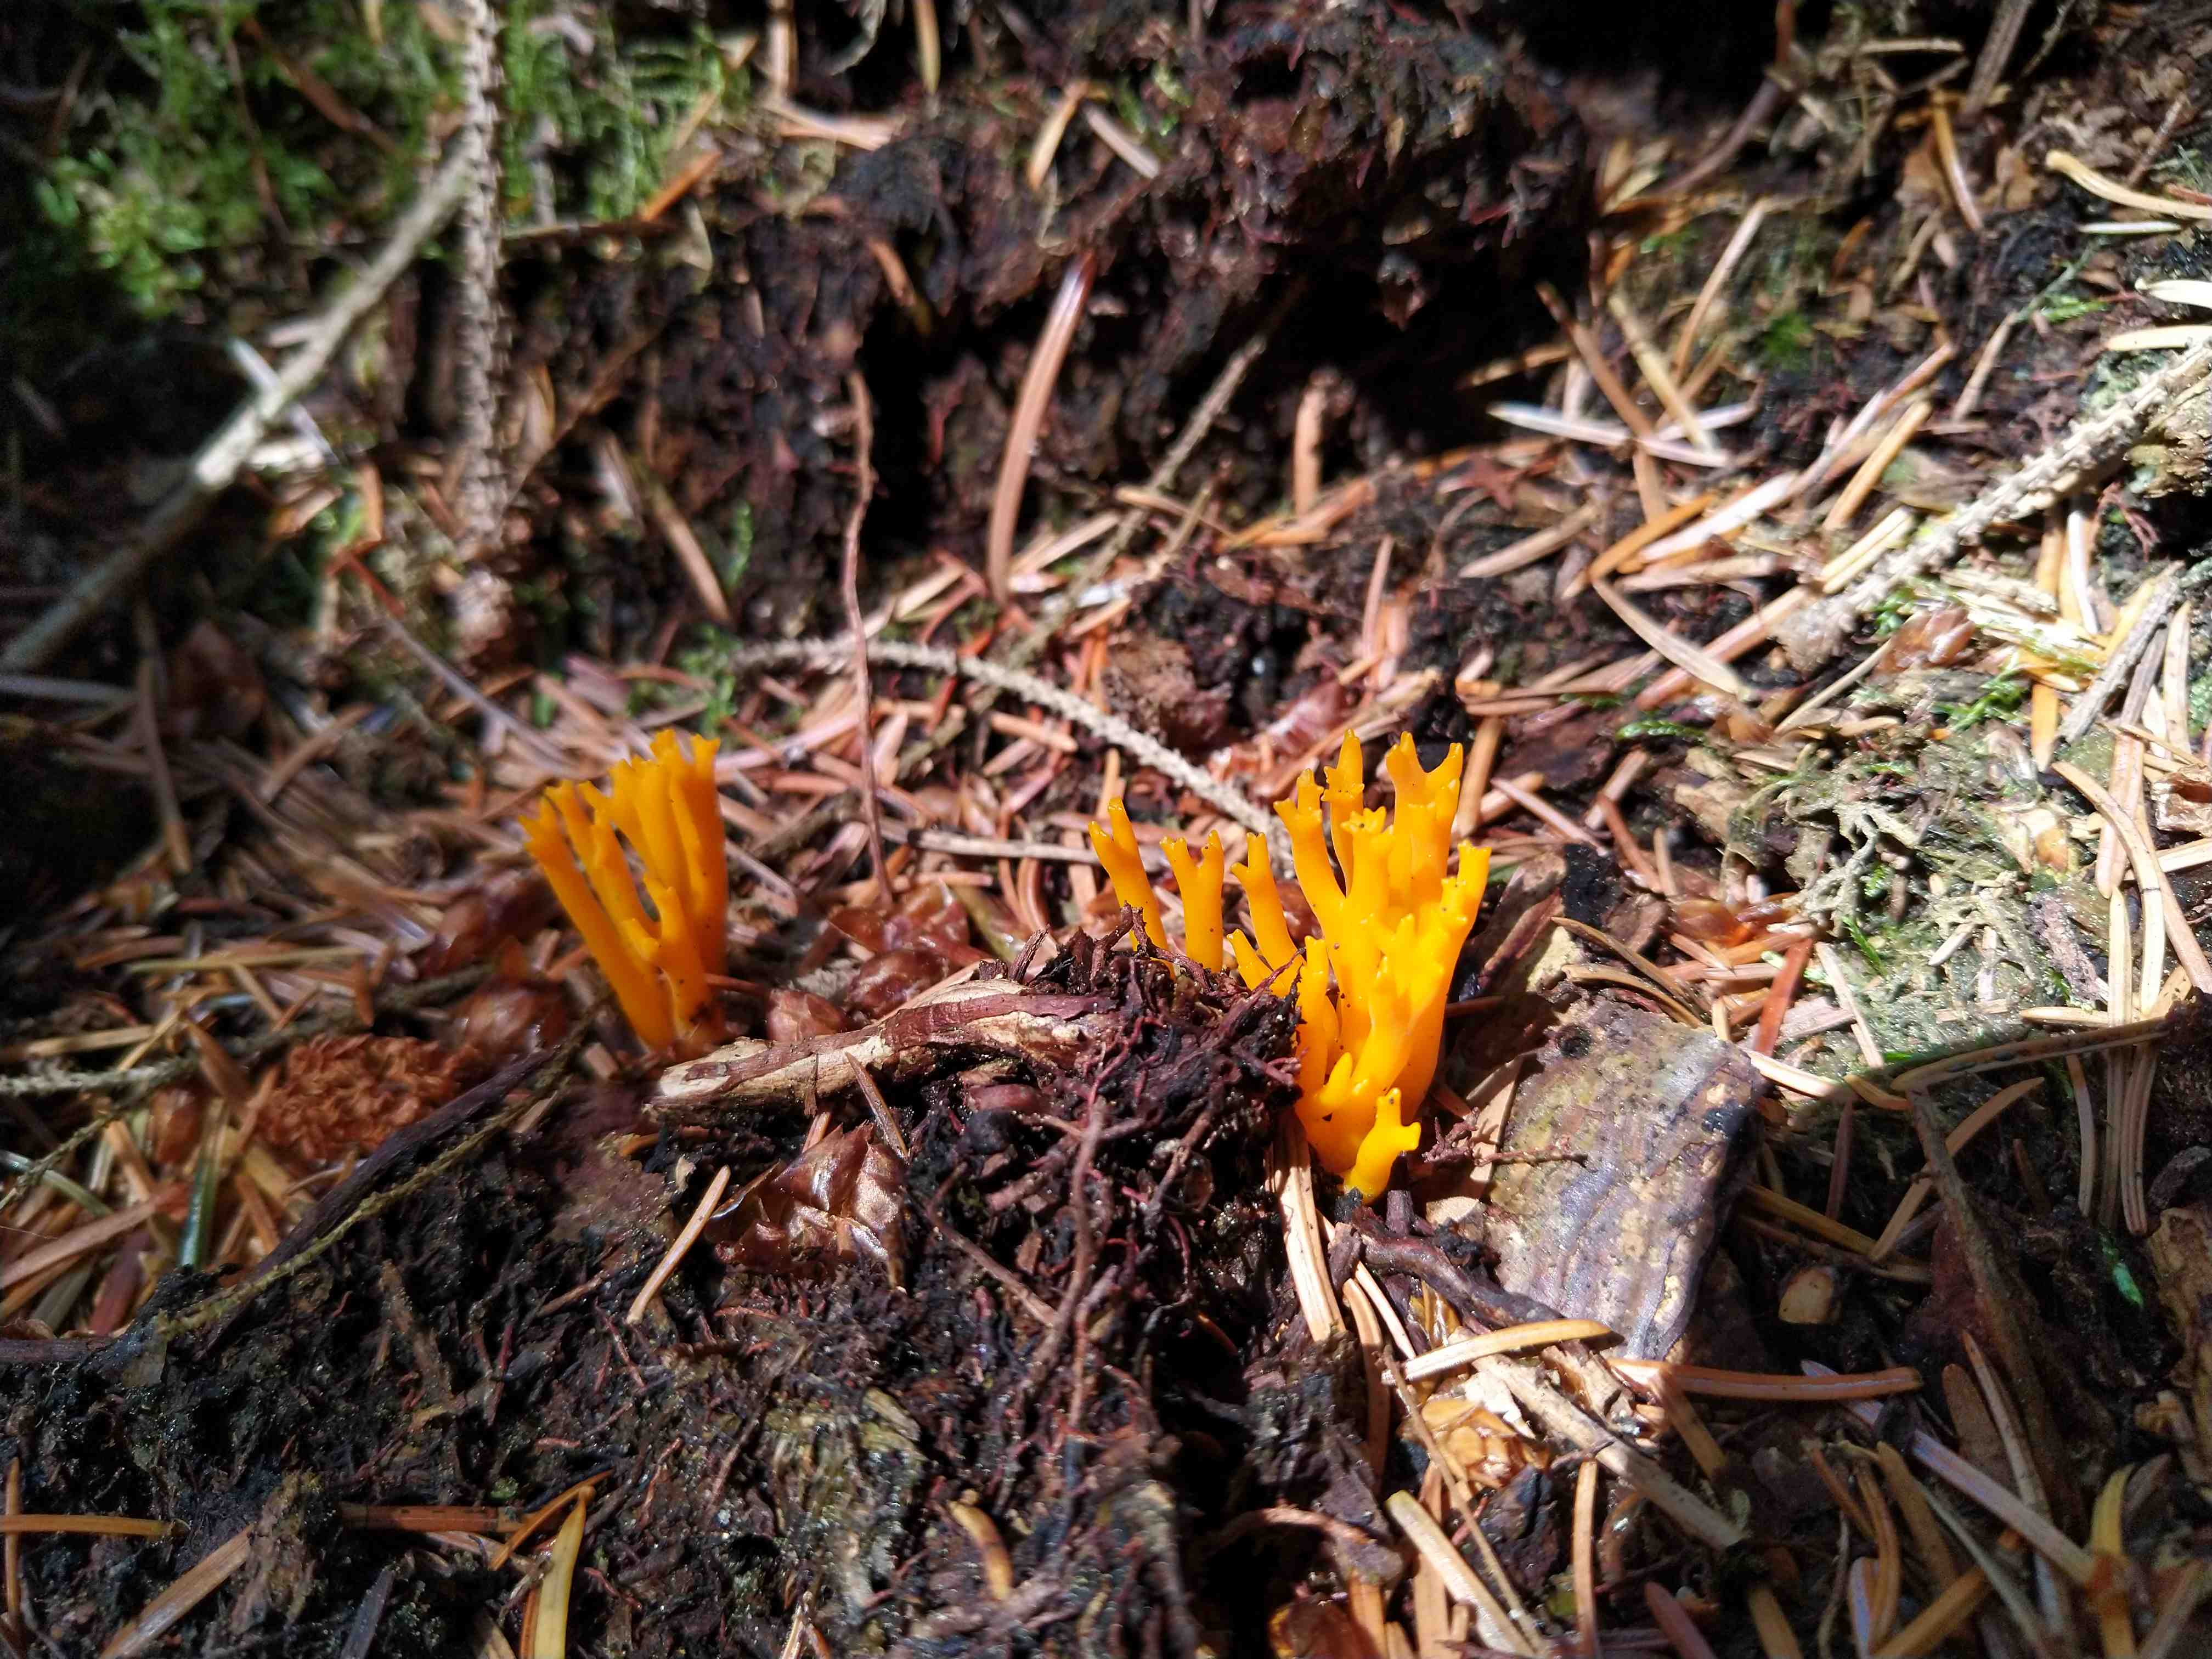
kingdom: Fungi
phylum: Basidiomycota
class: Dacrymycetes
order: Dacrymycetales
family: Dacrymycetaceae
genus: Calocera
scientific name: Calocera viscosa
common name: almindelig guldgaffel
